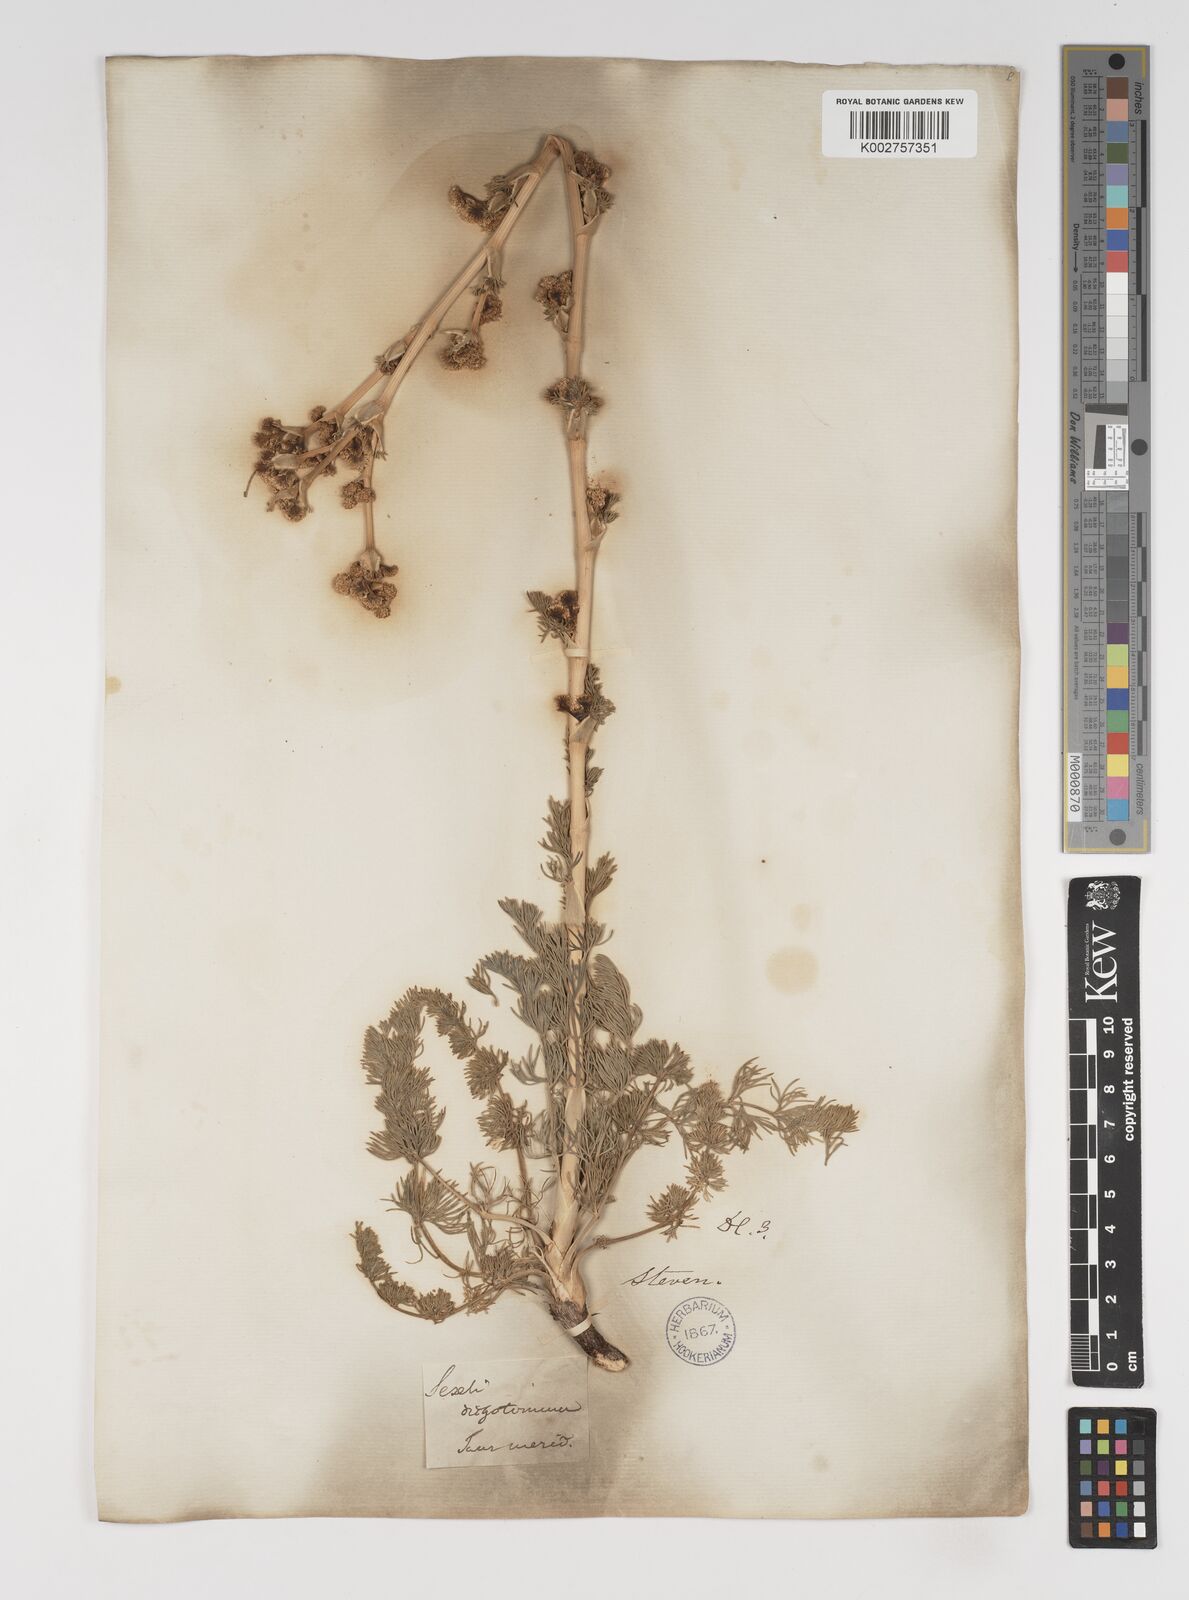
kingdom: Plantae
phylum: Tracheophyta
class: Magnoliopsida
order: Apiales
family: Apiaceae
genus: Hippomarathrum
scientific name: Hippomarathrum dichotomum
